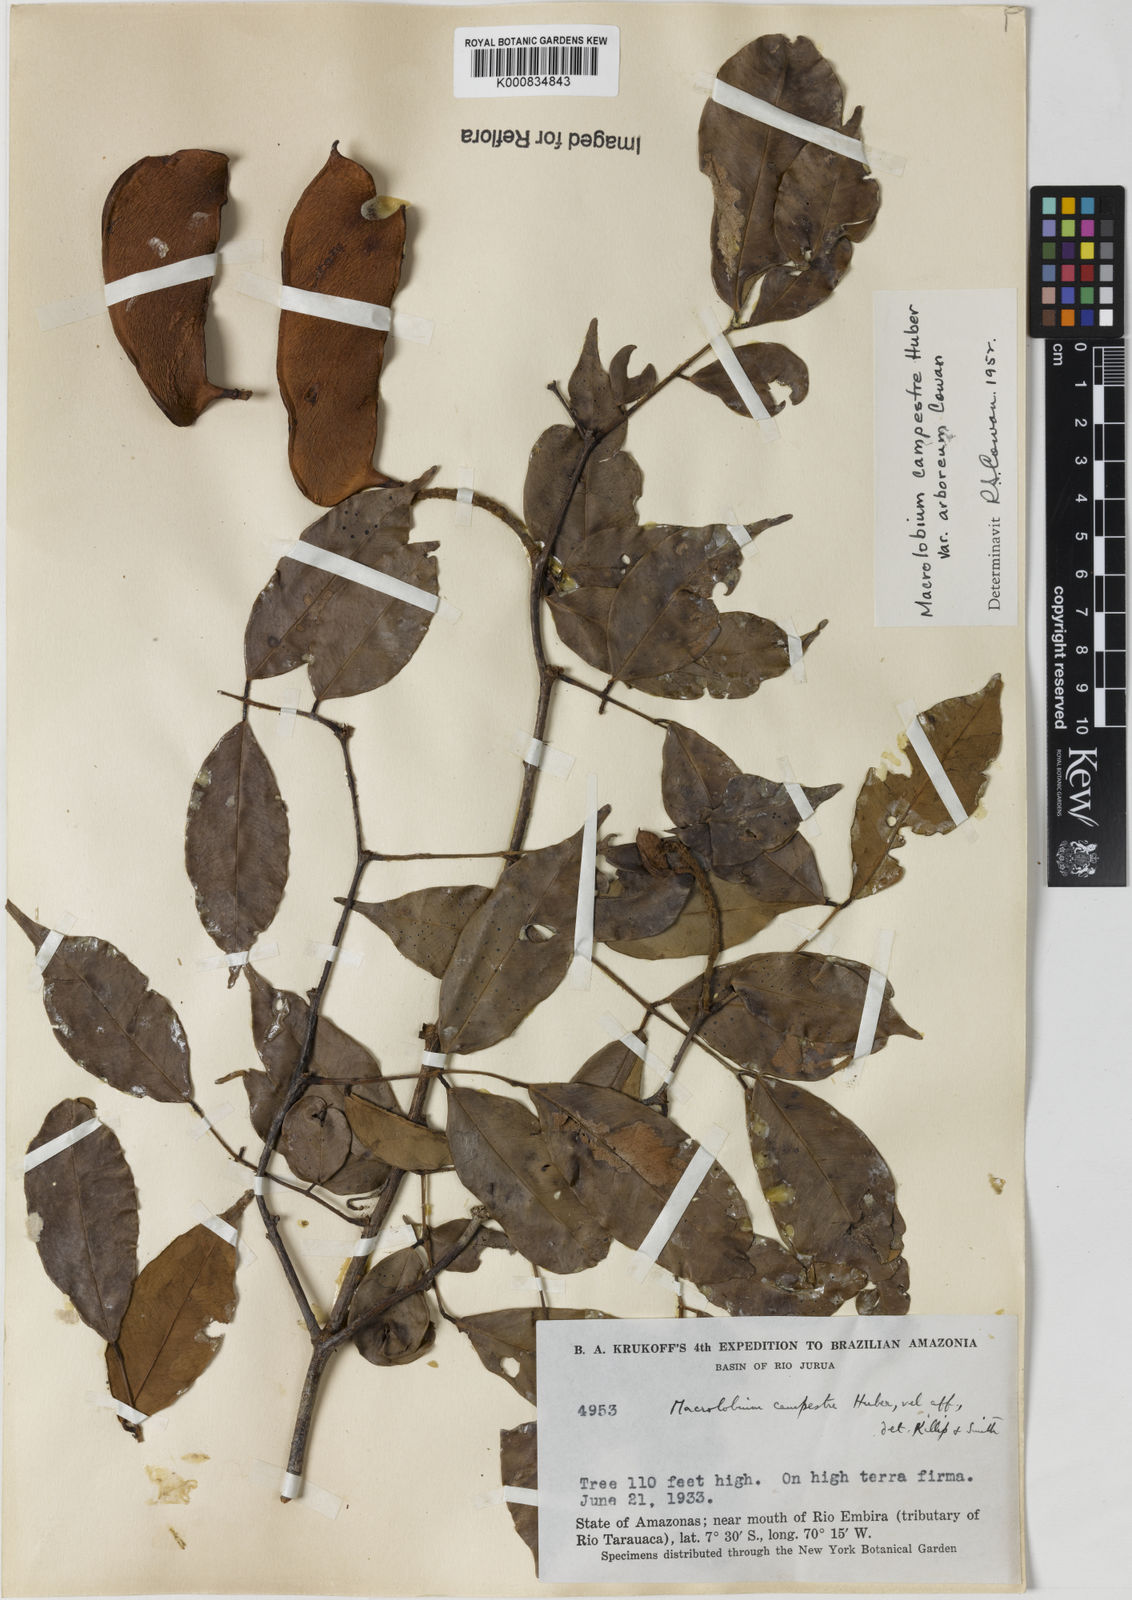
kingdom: Plantae
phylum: Tracheophyta
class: Magnoliopsida
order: Fabales
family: Fabaceae
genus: Macrolobium
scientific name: Macrolobium campestre
